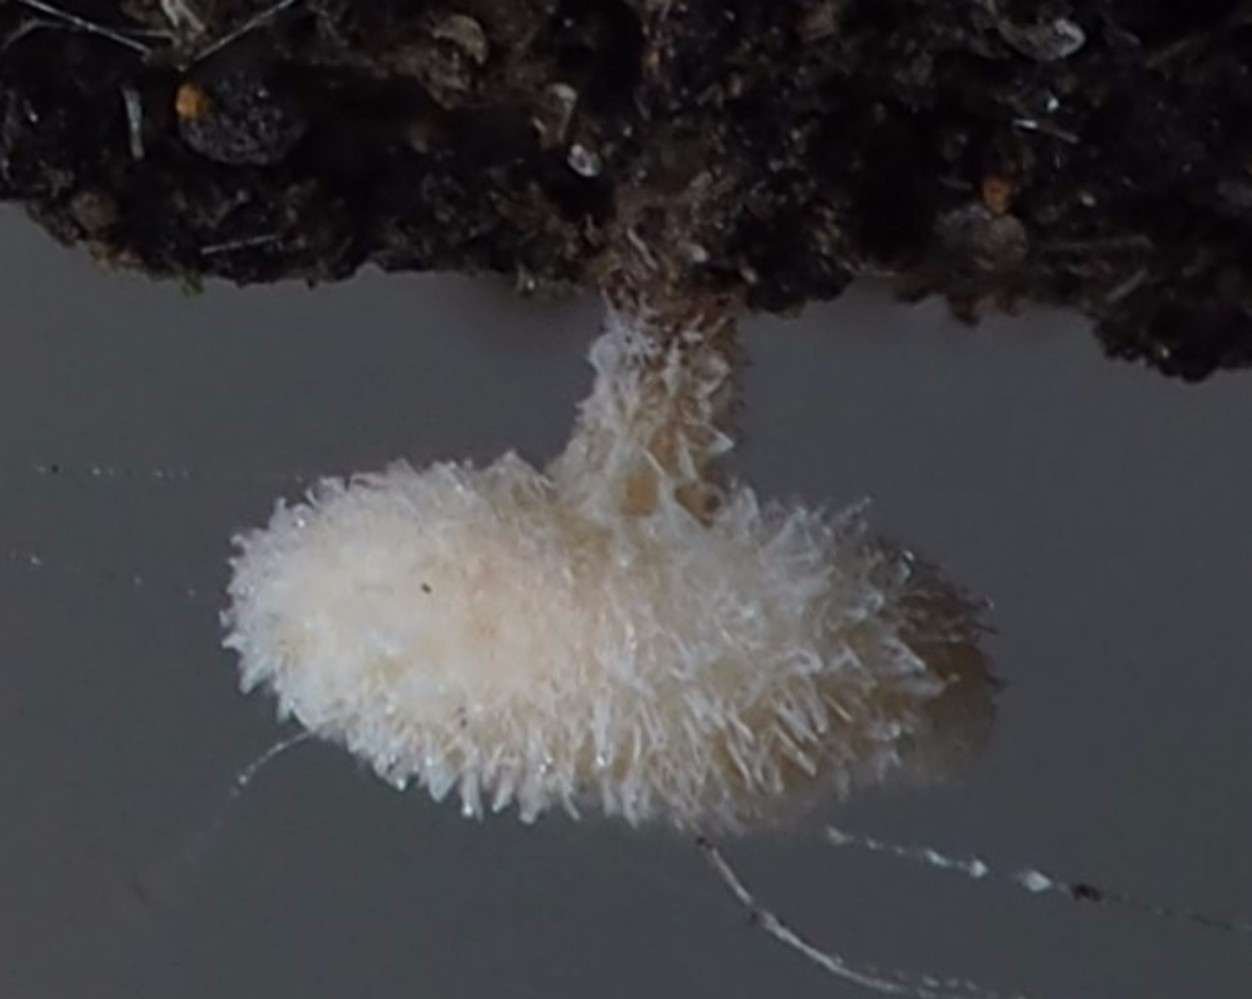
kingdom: Fungi
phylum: Ascomycota
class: Leotiomycetes
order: Helotiales
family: Hyaloscyphaceae
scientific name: Hyaloscyphaceae
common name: frynseskivefamilien
